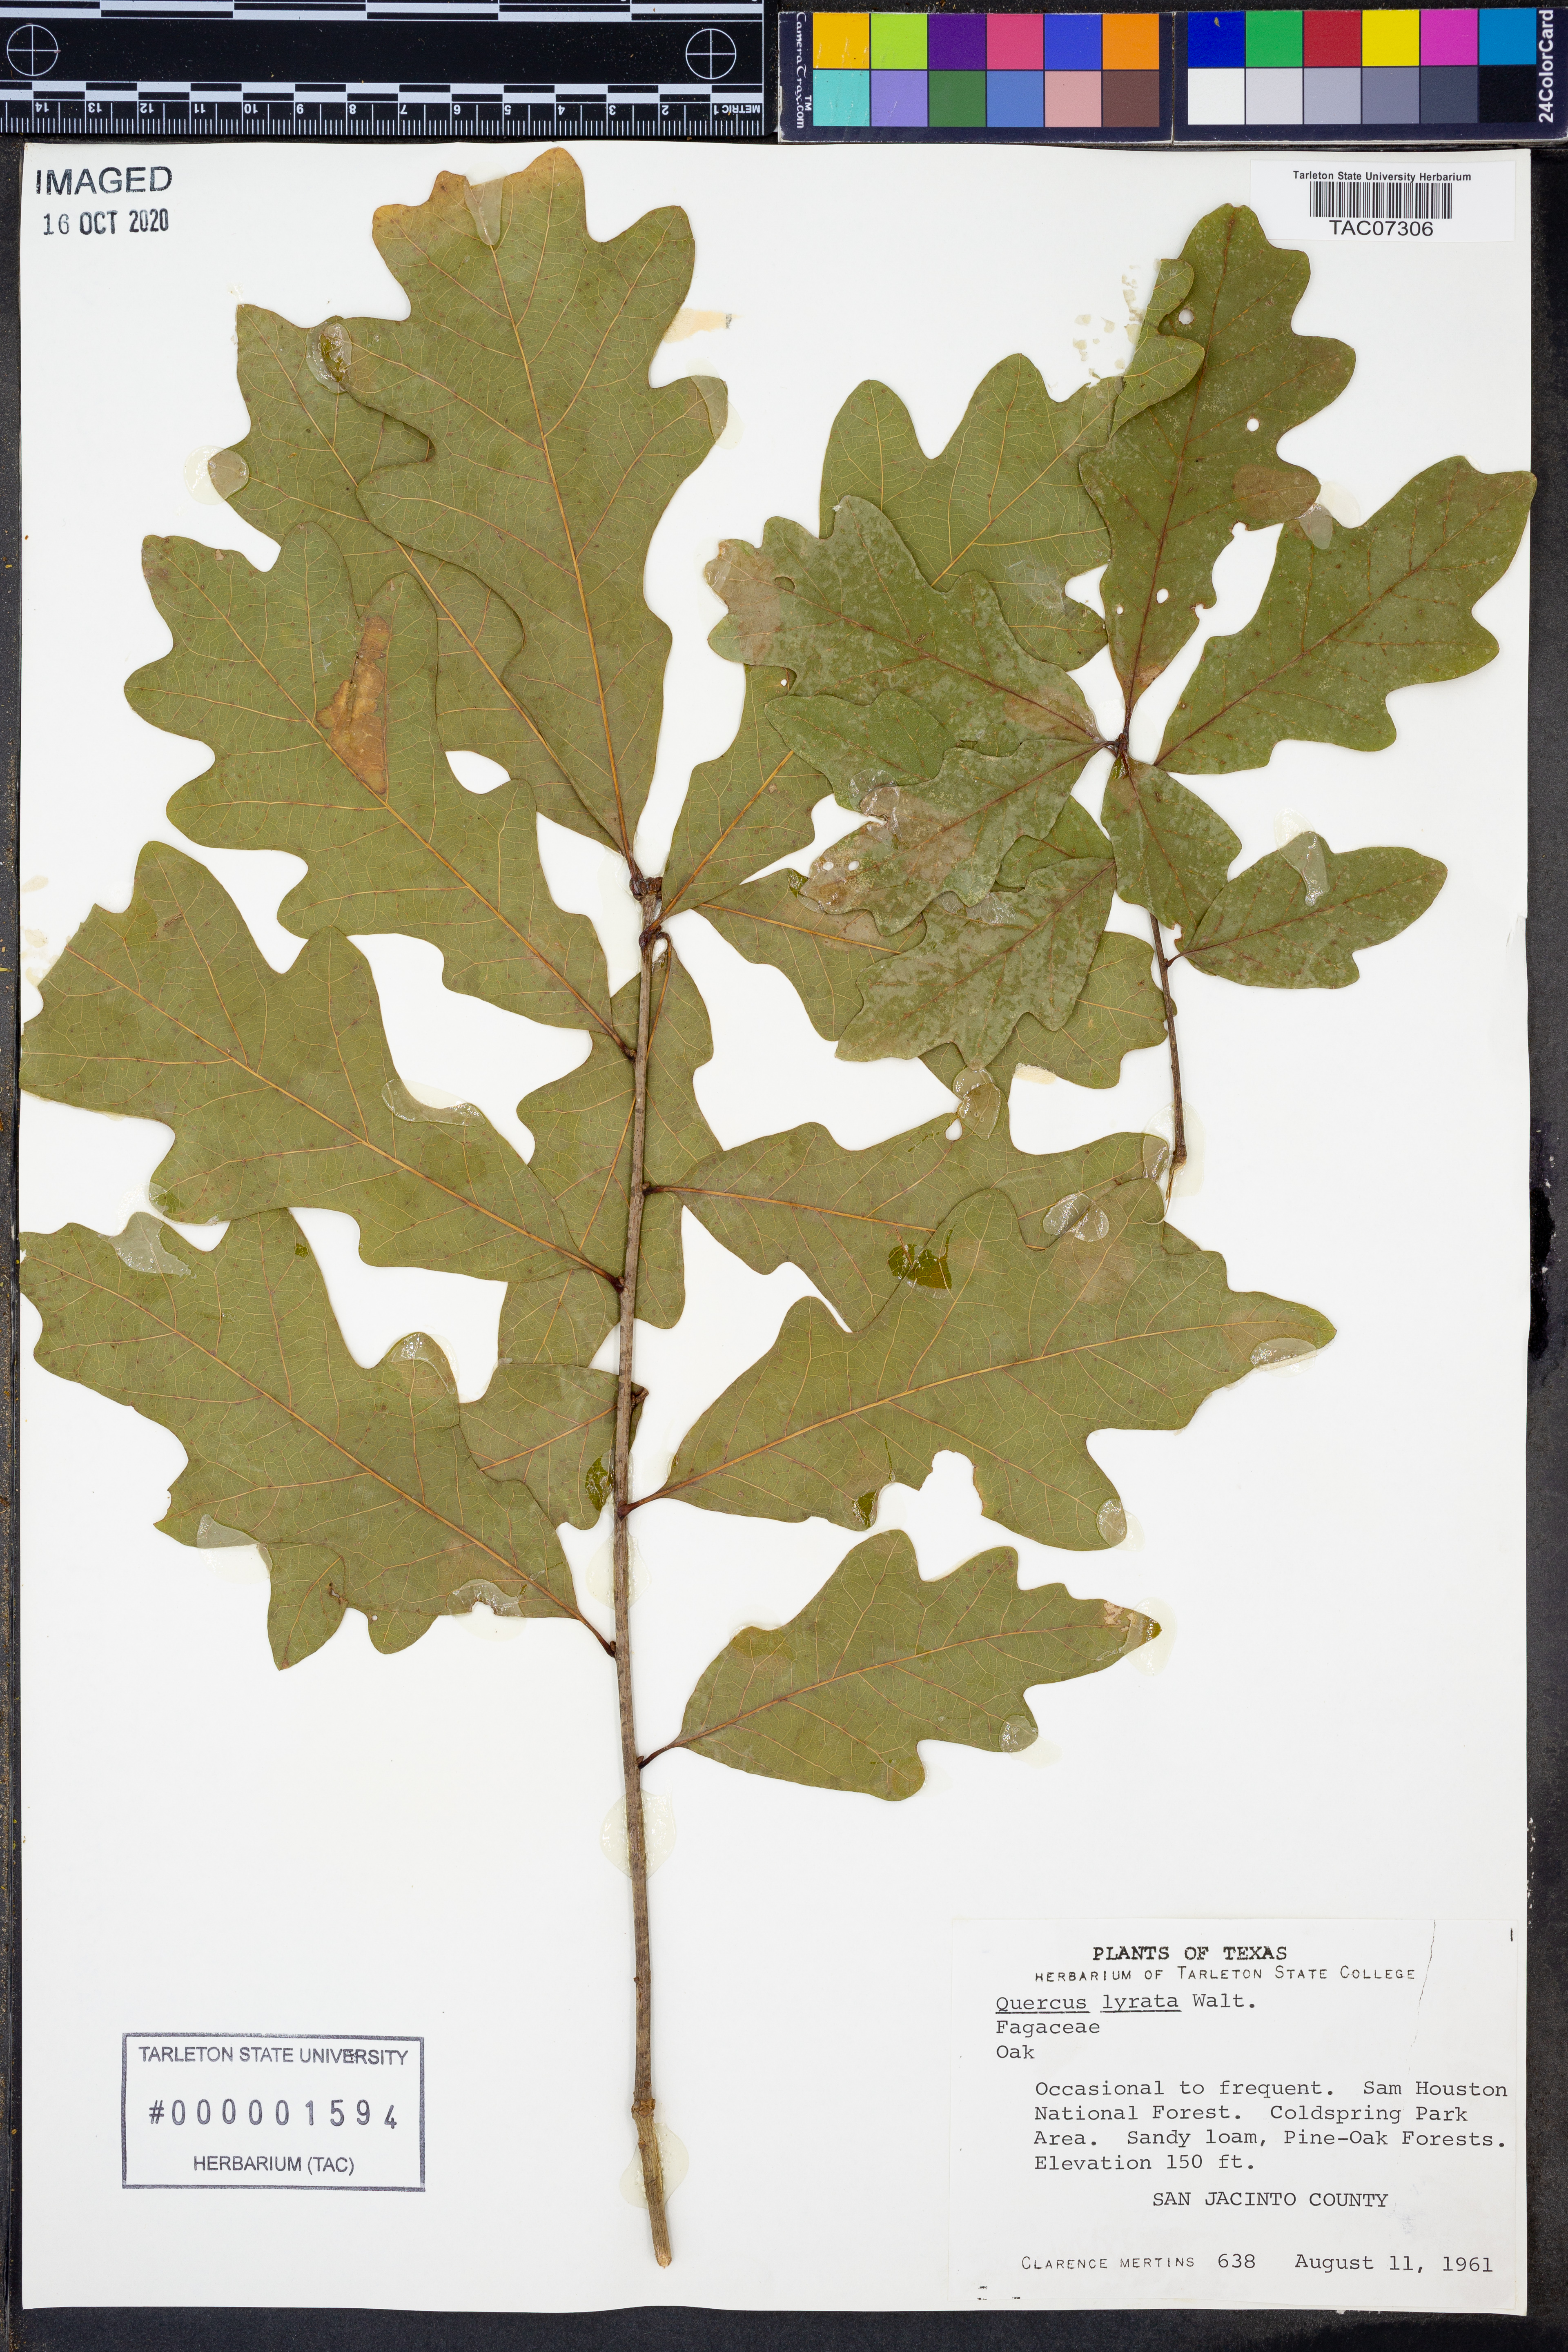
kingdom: Plantae
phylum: Tracheophyta
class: Magnoliopsida
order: Fagales
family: Fagaceae
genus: Quercus
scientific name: Quercus lyrata
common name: Overcup oak
